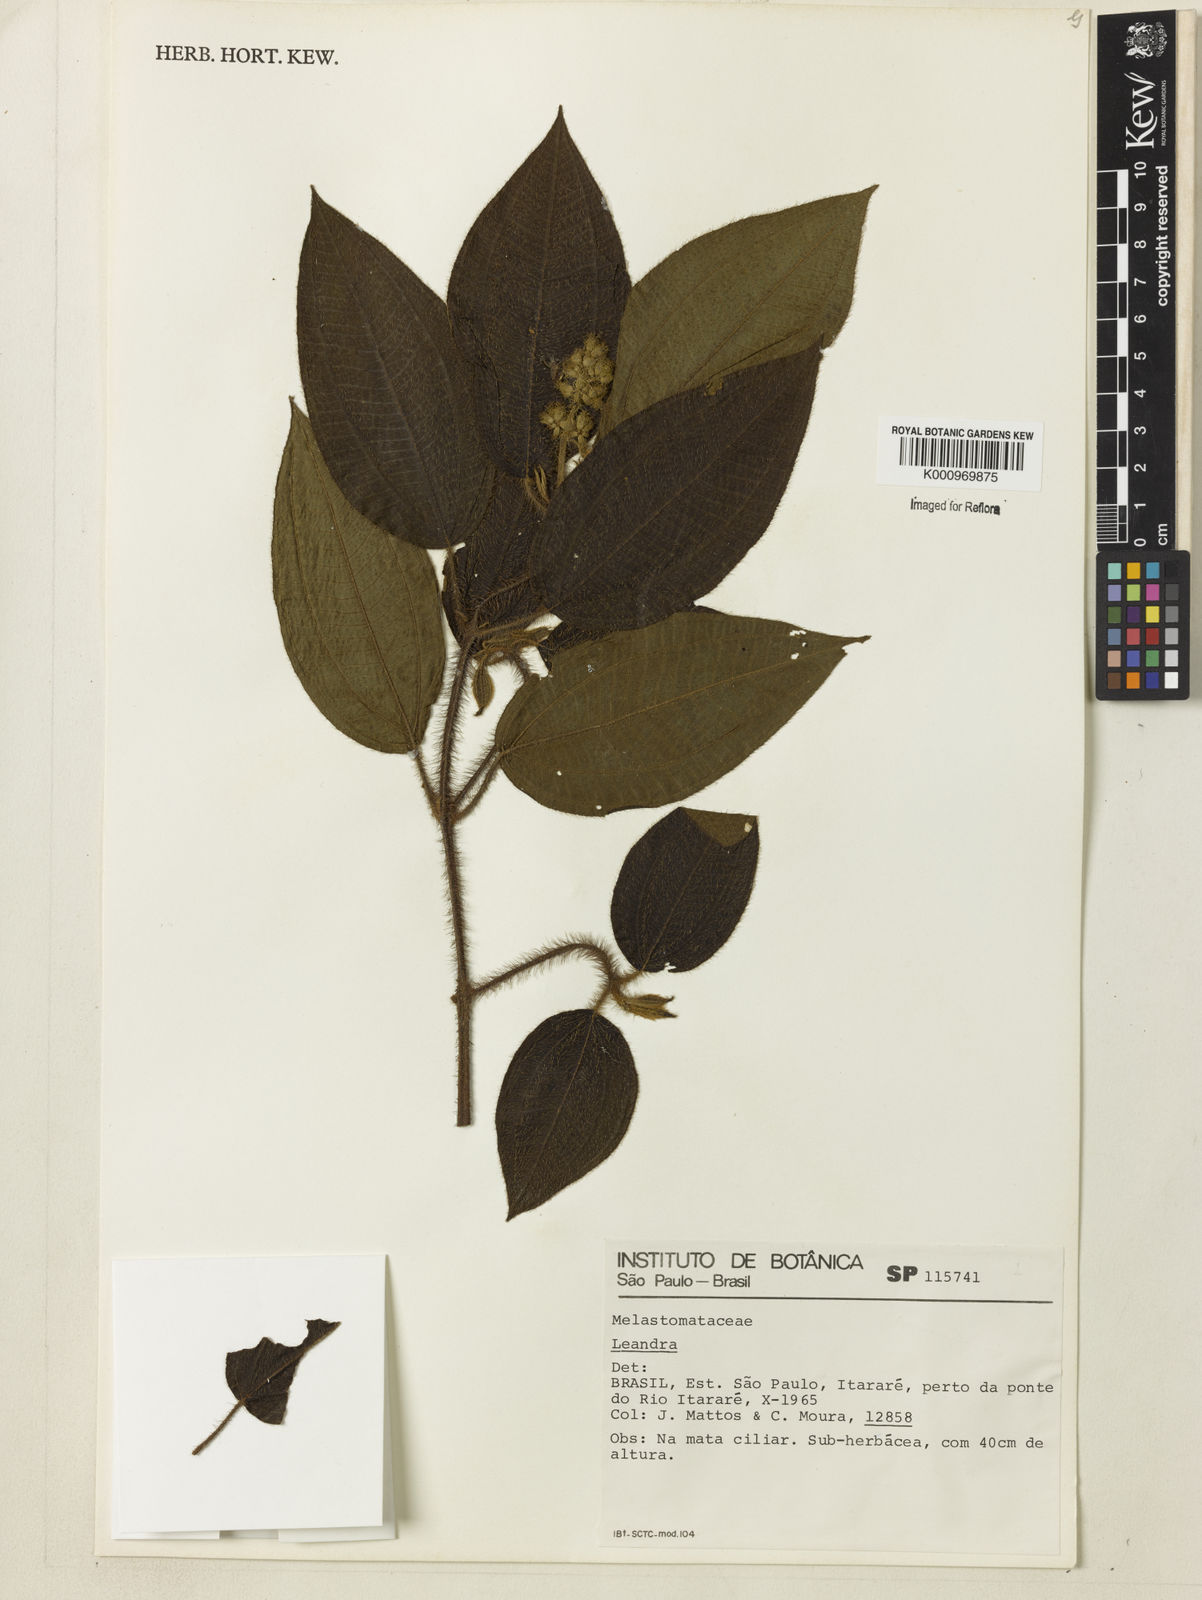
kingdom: Plantae
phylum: Tracheophyta
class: Magnoliopsida
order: Myrtales
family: Melastomataceae
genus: Miconia
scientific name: Miconia
